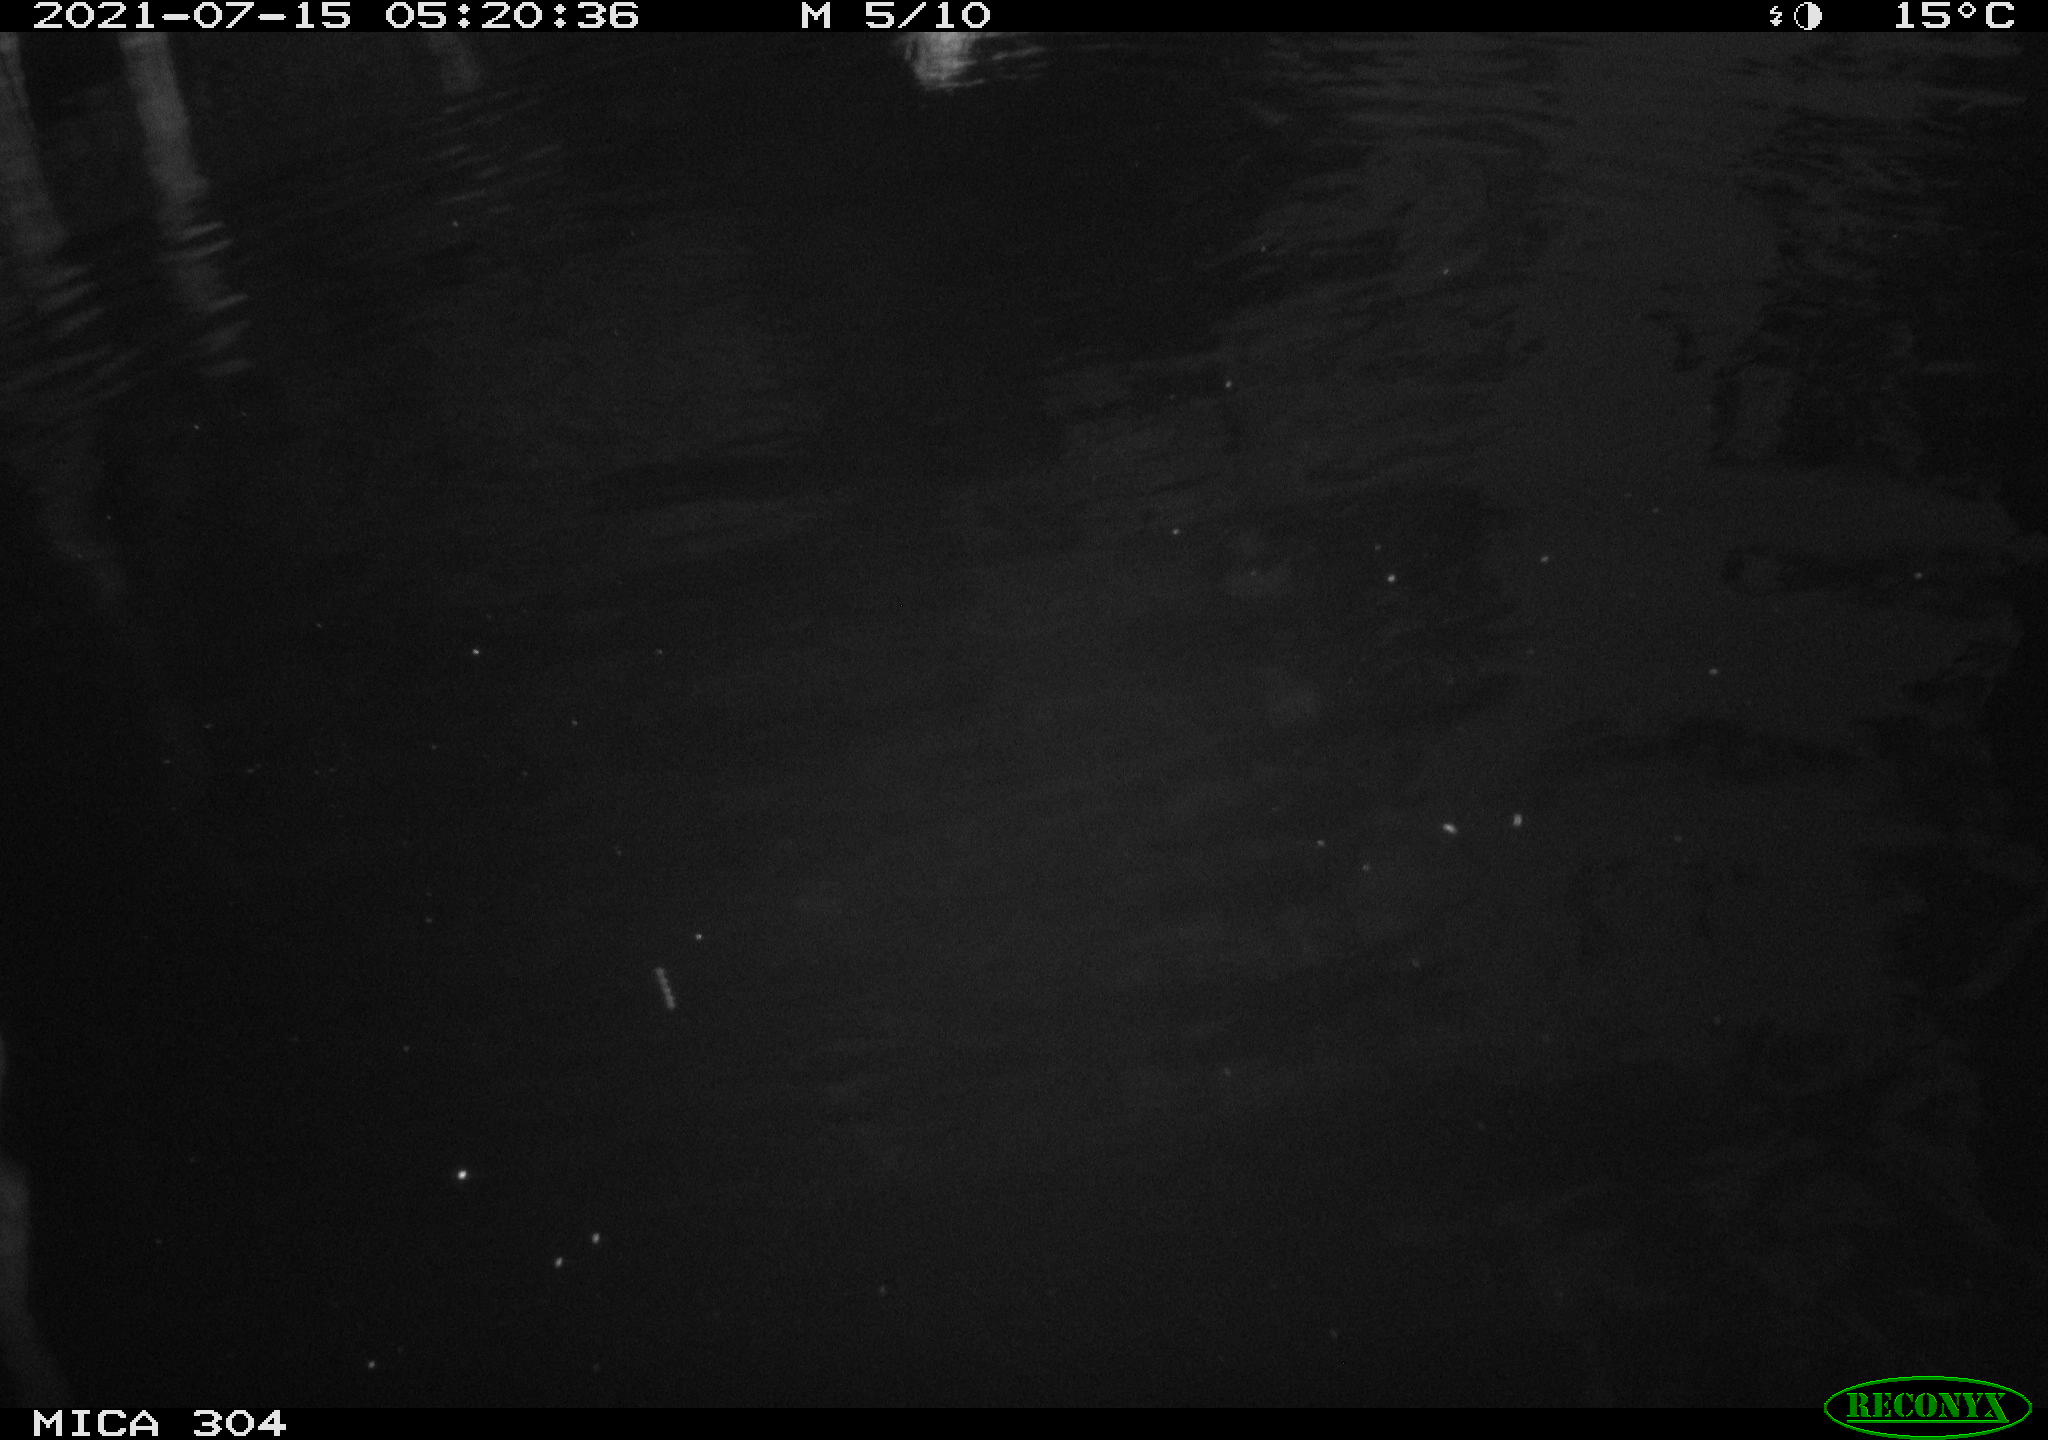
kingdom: Animalia
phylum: Chordata
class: Aves
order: Anseriformes
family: Anatidae
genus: Anas
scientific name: Anas platyrhynchos
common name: Mallard
